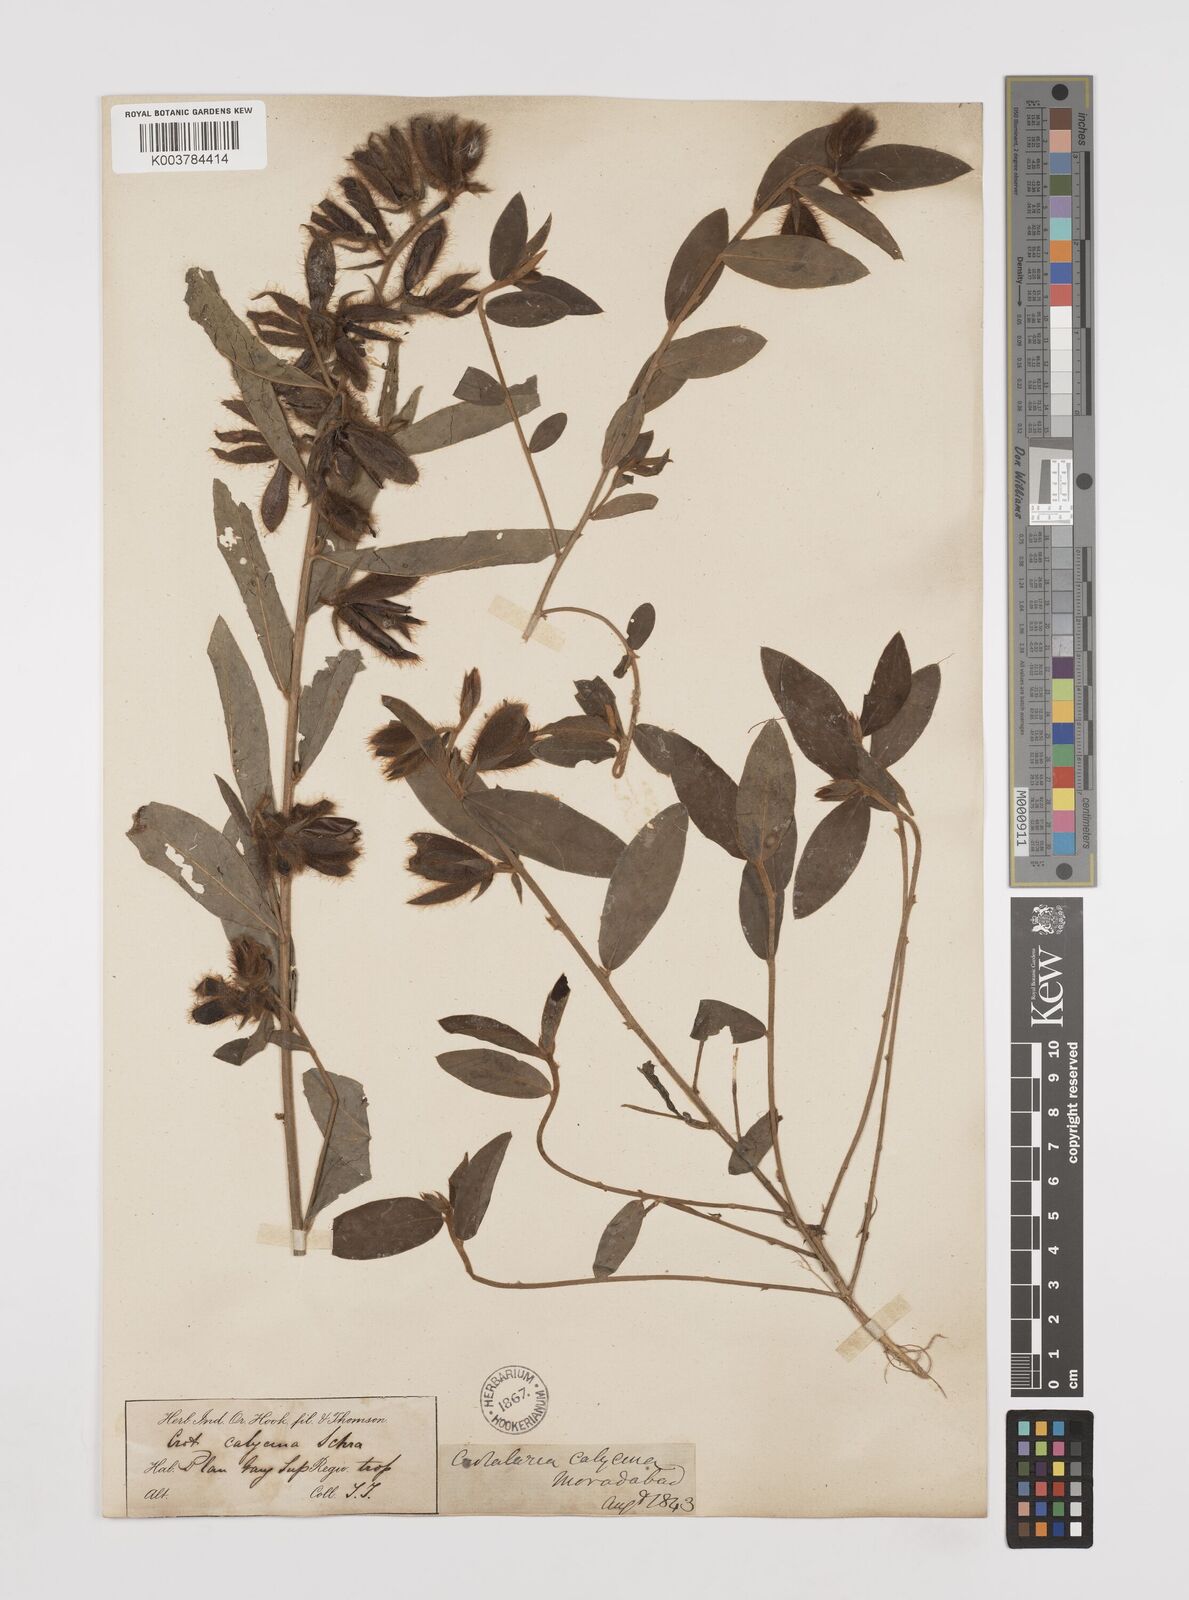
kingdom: Plantae
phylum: Tracheophyta
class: Magnoliopsida
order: Fabales
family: Fabaceae
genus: Crotalaria
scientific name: Crotalaria calycina
